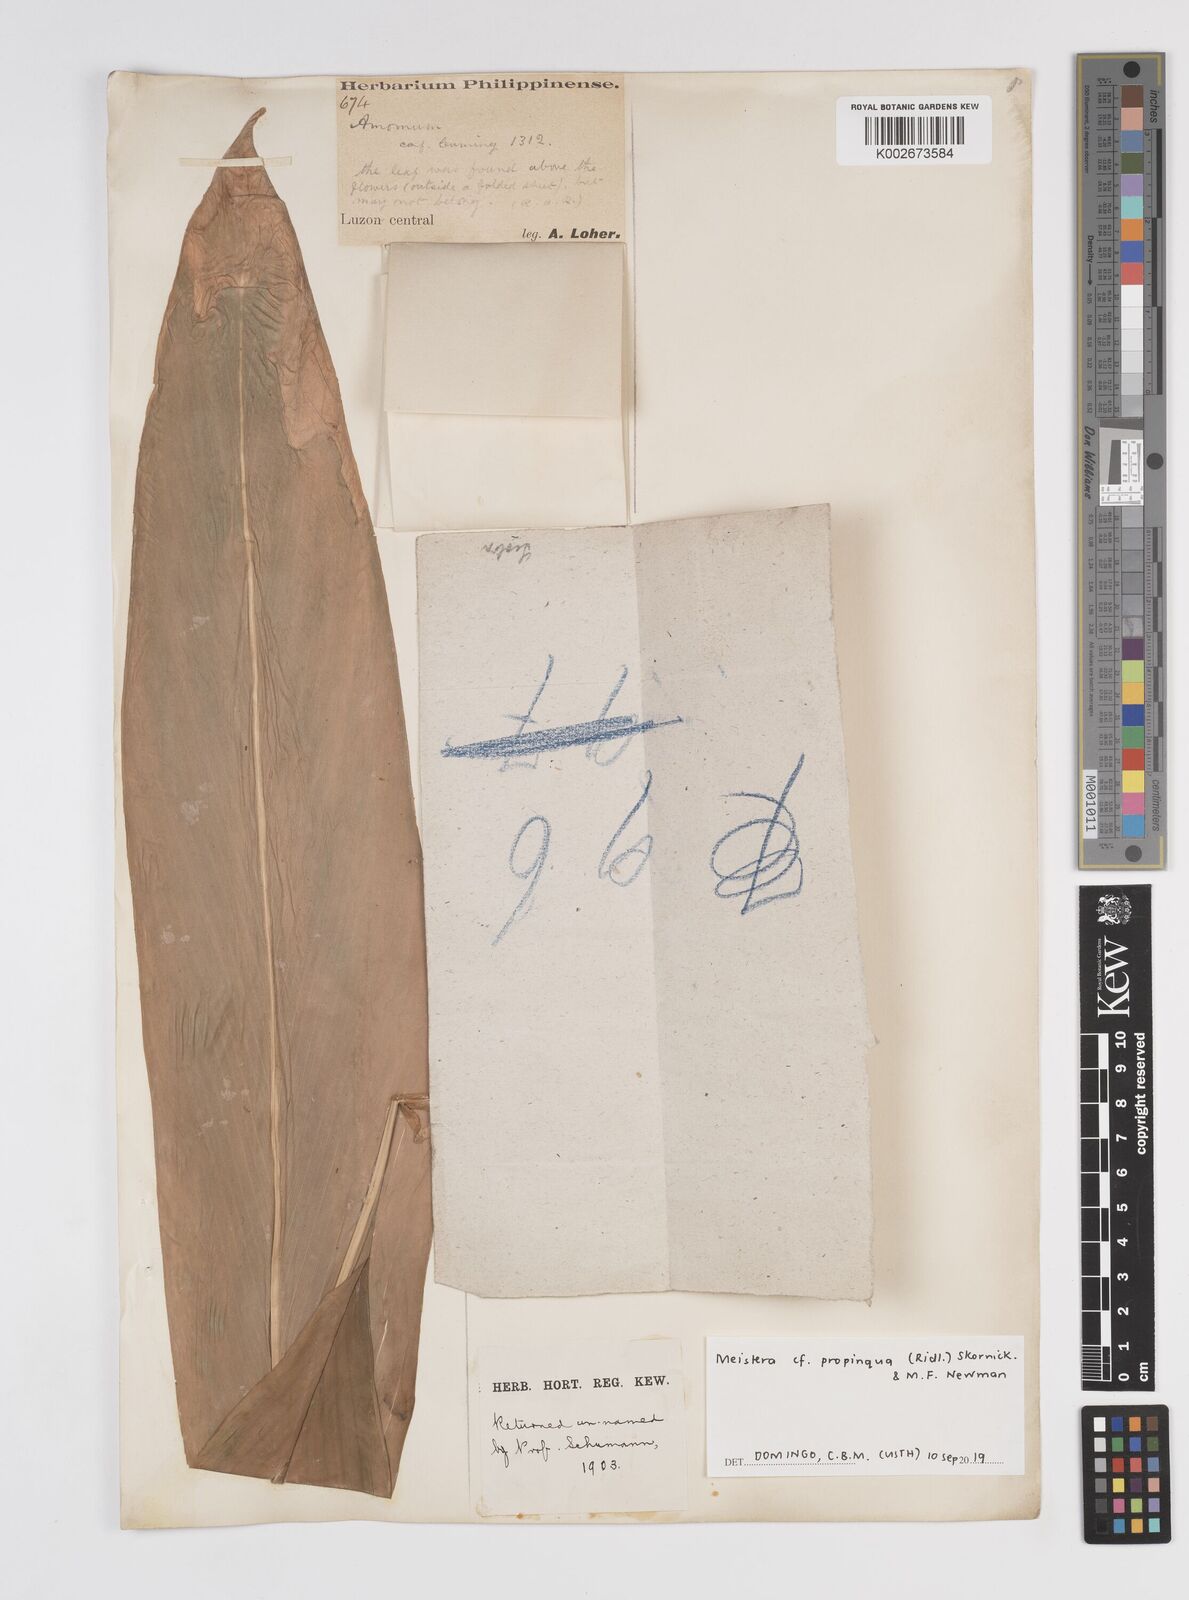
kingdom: Plantae
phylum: Tracheophyta
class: Liliopsida
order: Zingiberales
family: Zingiberaceae
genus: Meistera
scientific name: Meistera propinqua
